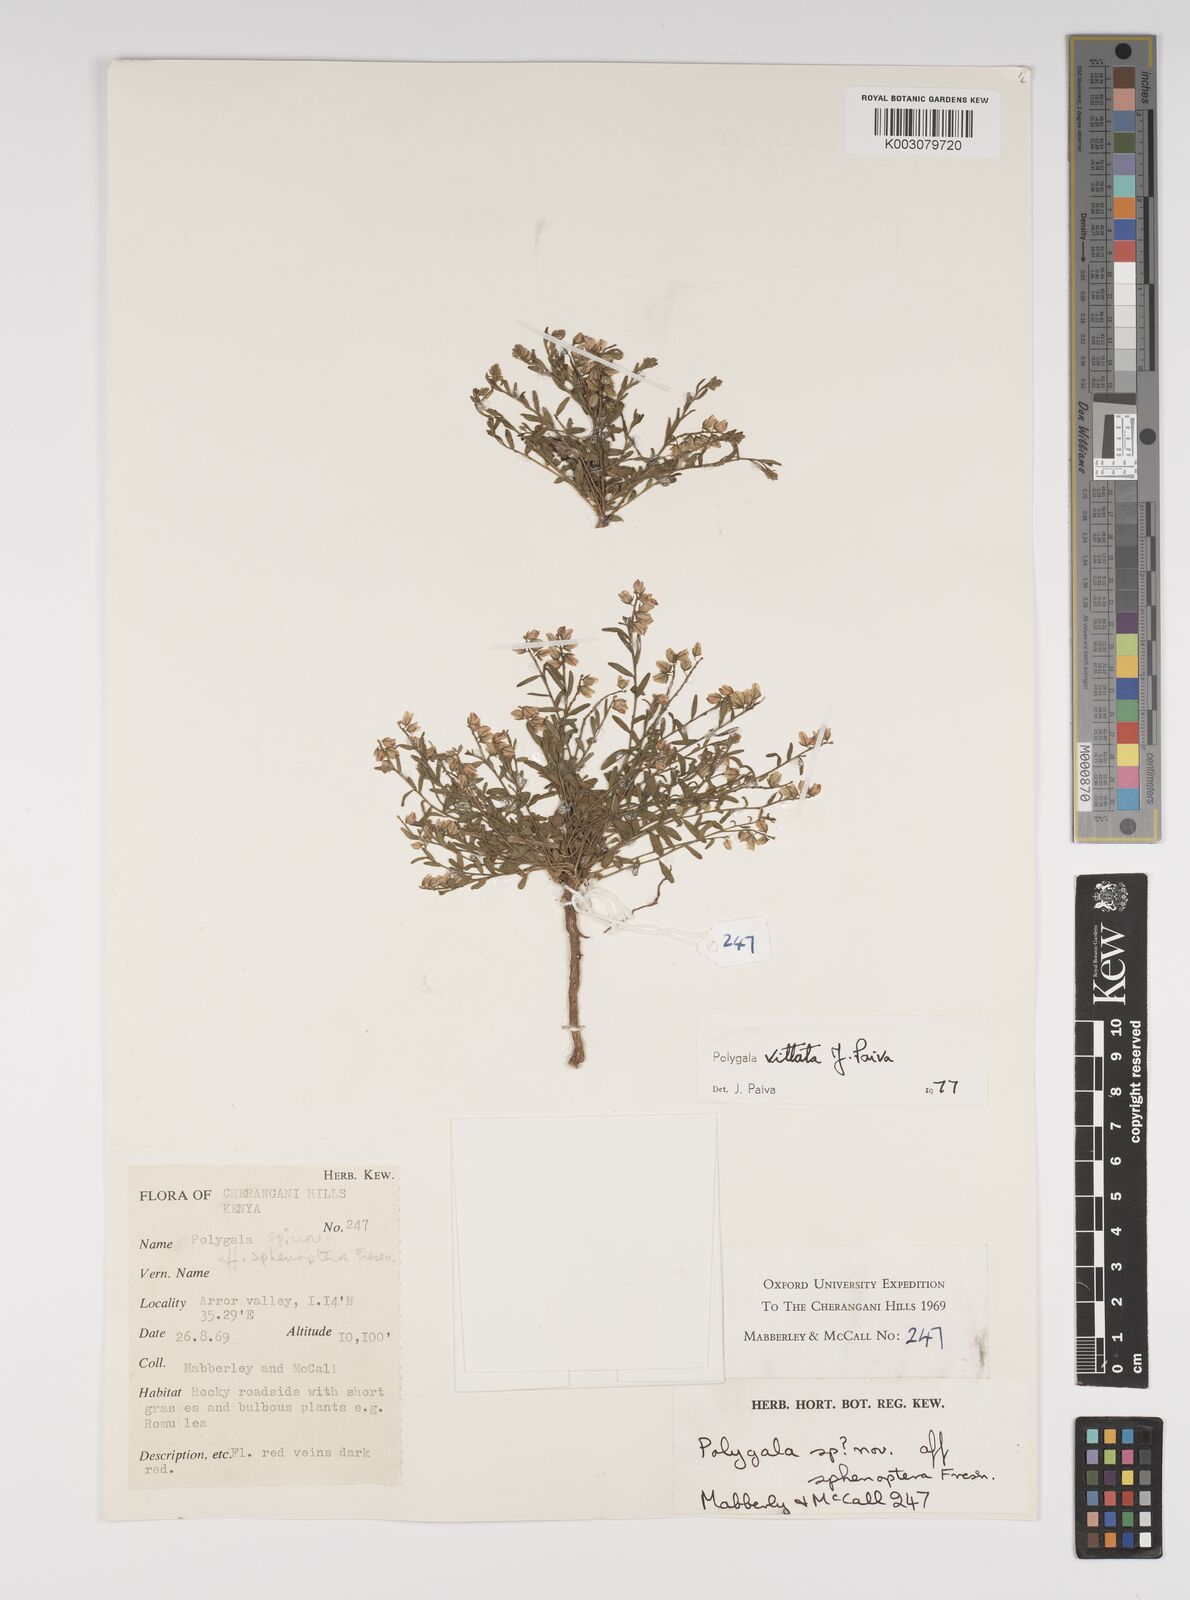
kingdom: Plantae
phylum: Tracheophyta
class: Magnoliopsida
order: Fabales
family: Polygalaceae
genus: Polygala
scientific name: Polygala vittata
